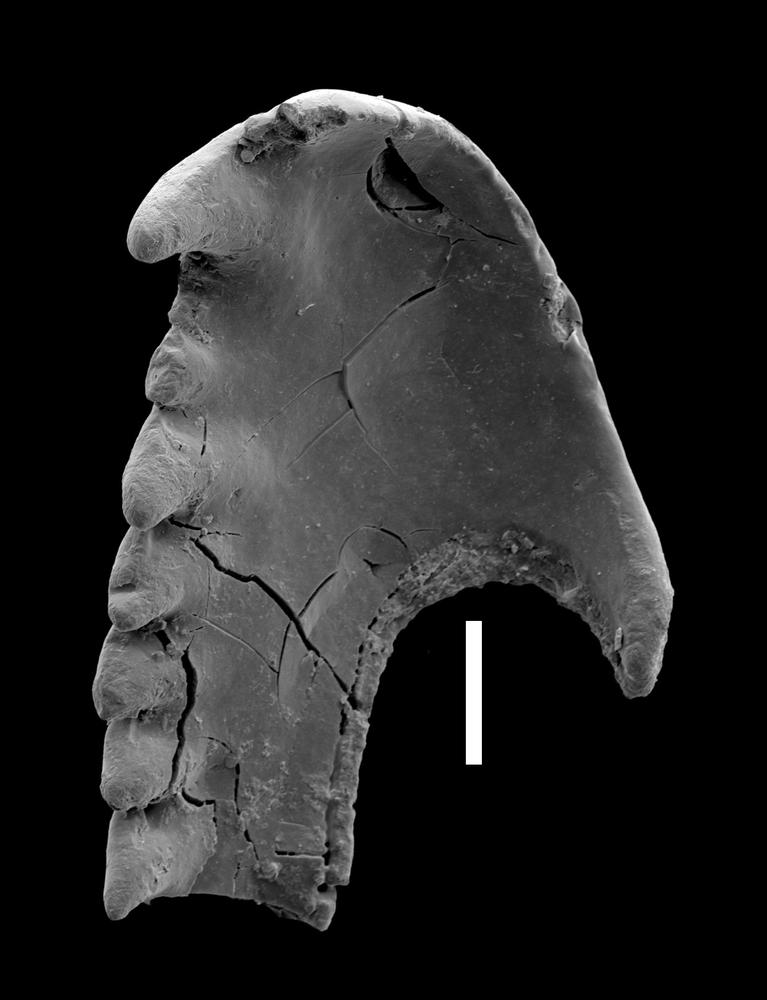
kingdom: Animalia
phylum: Annelida
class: Polychaeta
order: Eunicida
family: Paulinitidae
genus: Kettnerites
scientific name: Kettnerites
